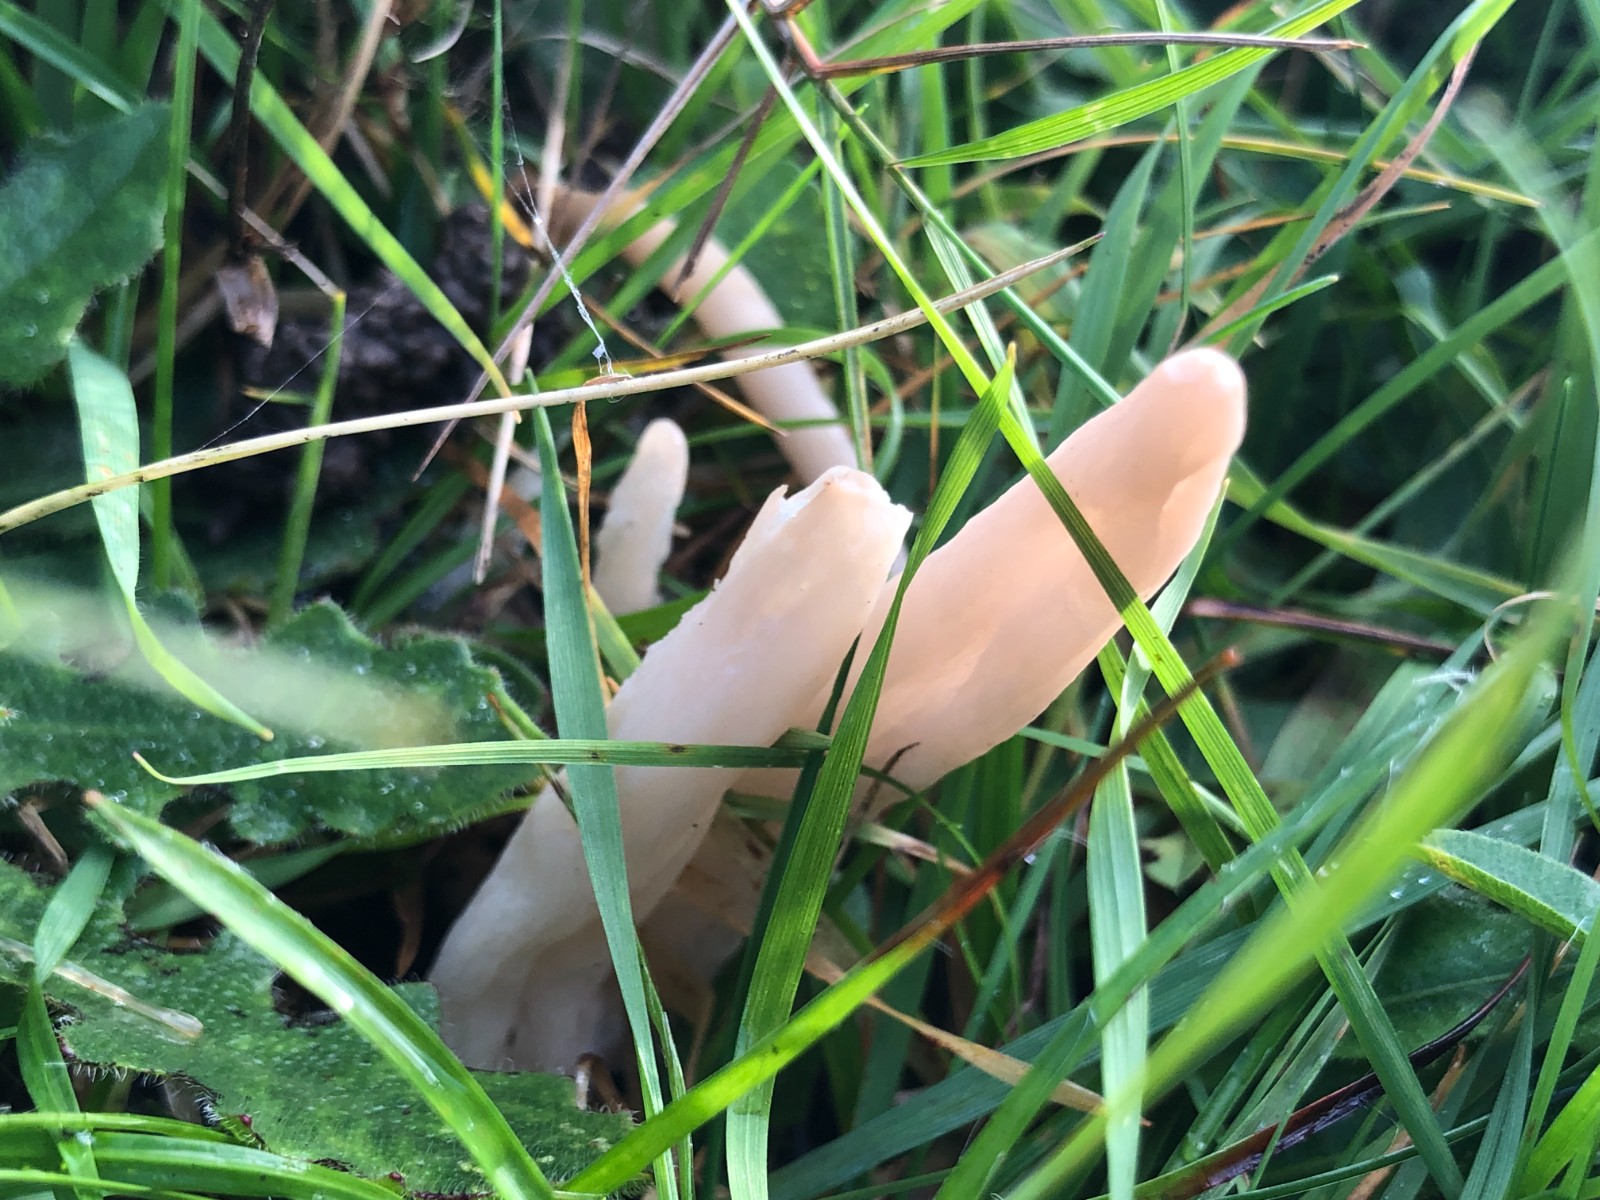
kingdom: Fungi
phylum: Basidiomycota
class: Agaricomycetes
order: Agaricales
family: Clavariaceae
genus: Clavaria
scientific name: Clavaria fumosa
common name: røggrå køllesvamp
